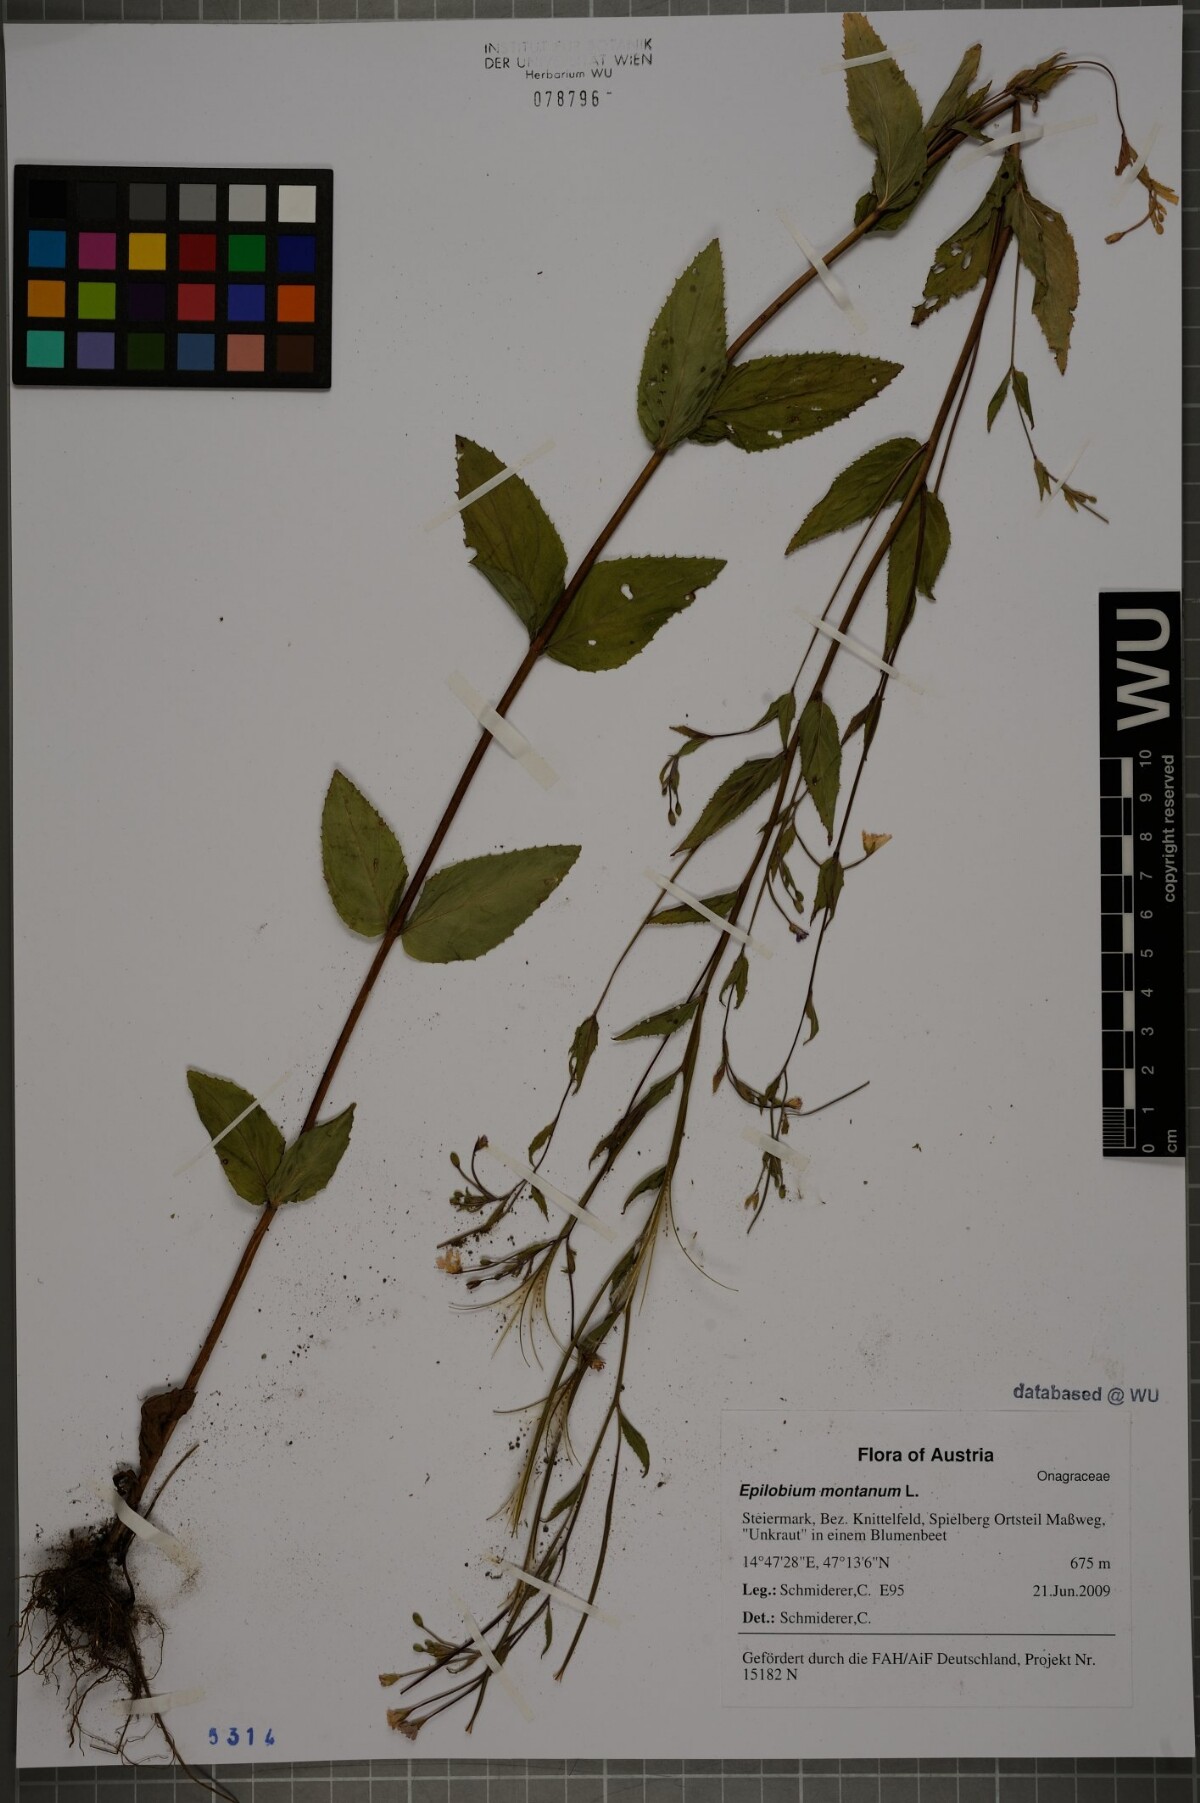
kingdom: Plantae
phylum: Tracheophyta
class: Magnoliopsida
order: Myrtales
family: Onagraceae
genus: Epilobium
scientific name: Epilobium montanum
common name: Broad-leaved willowherb
